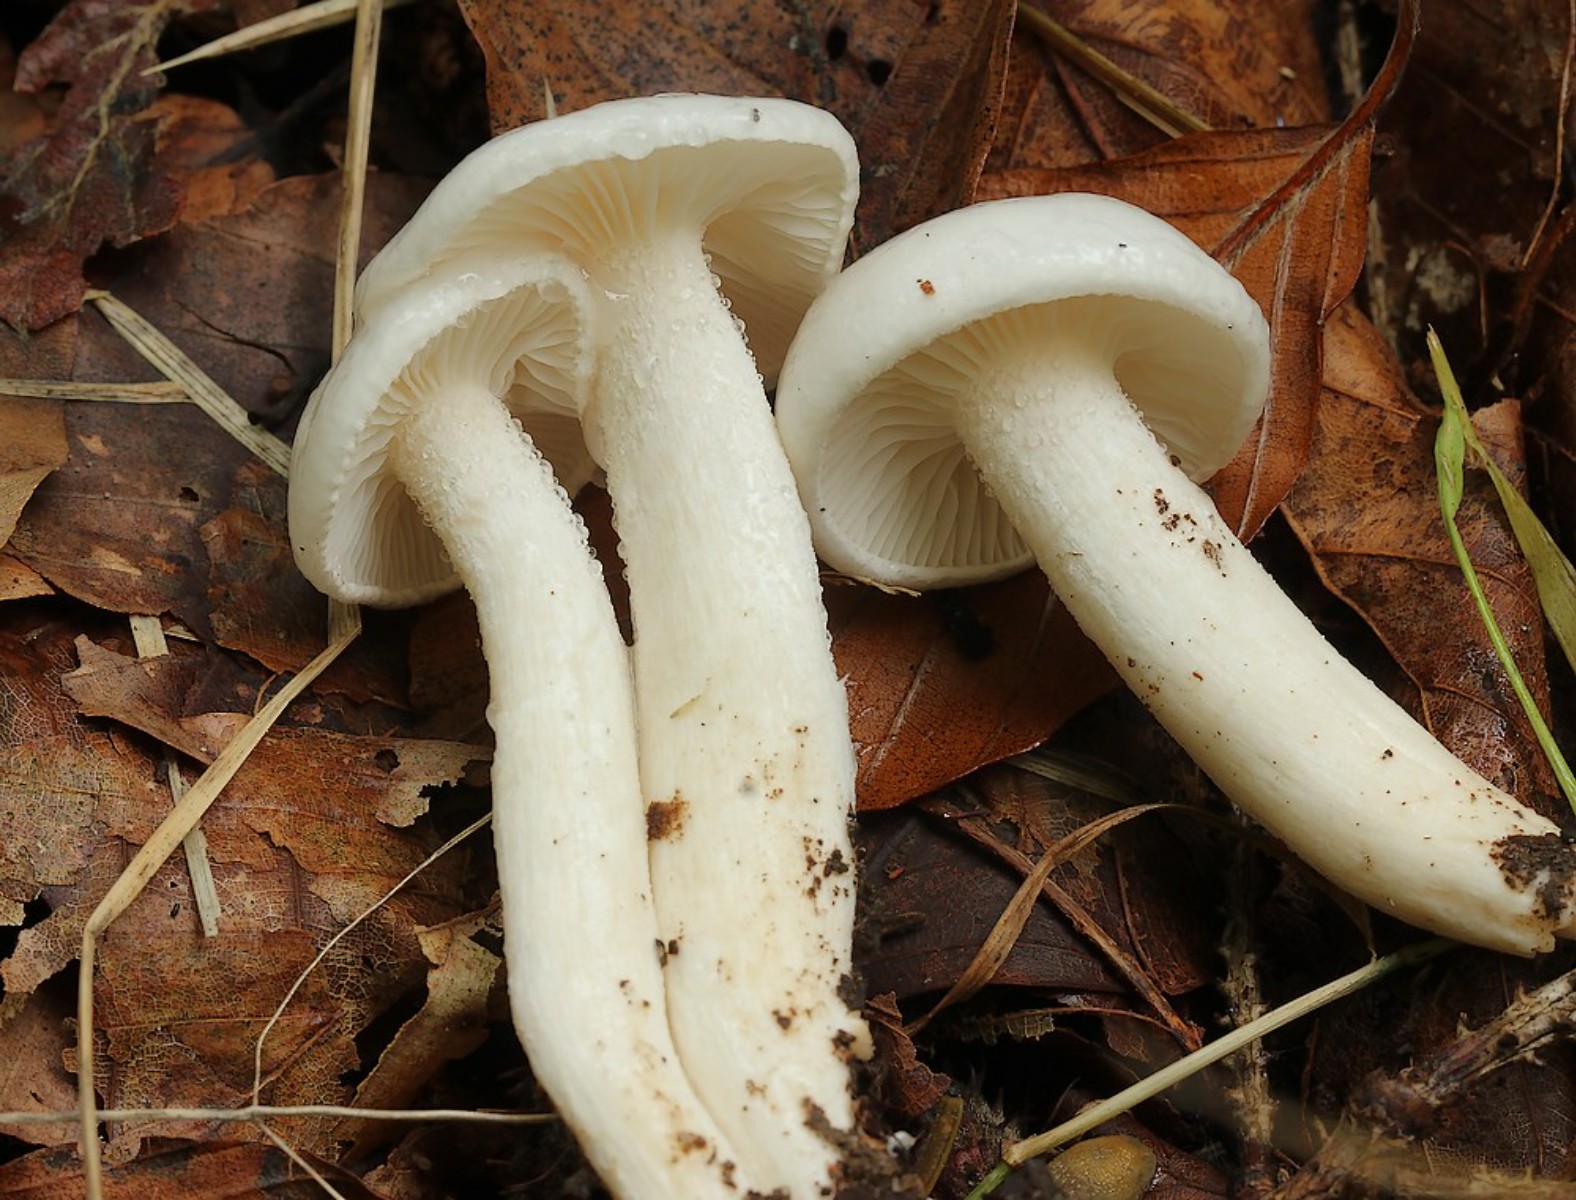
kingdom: Fungi
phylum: Basidiomycota
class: Agaricomycetes
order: Agaricales
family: Hygrophoraceae
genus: Hygrophorus
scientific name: Hygrophorus discoxanthus
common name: ildelugtende sneglehat
